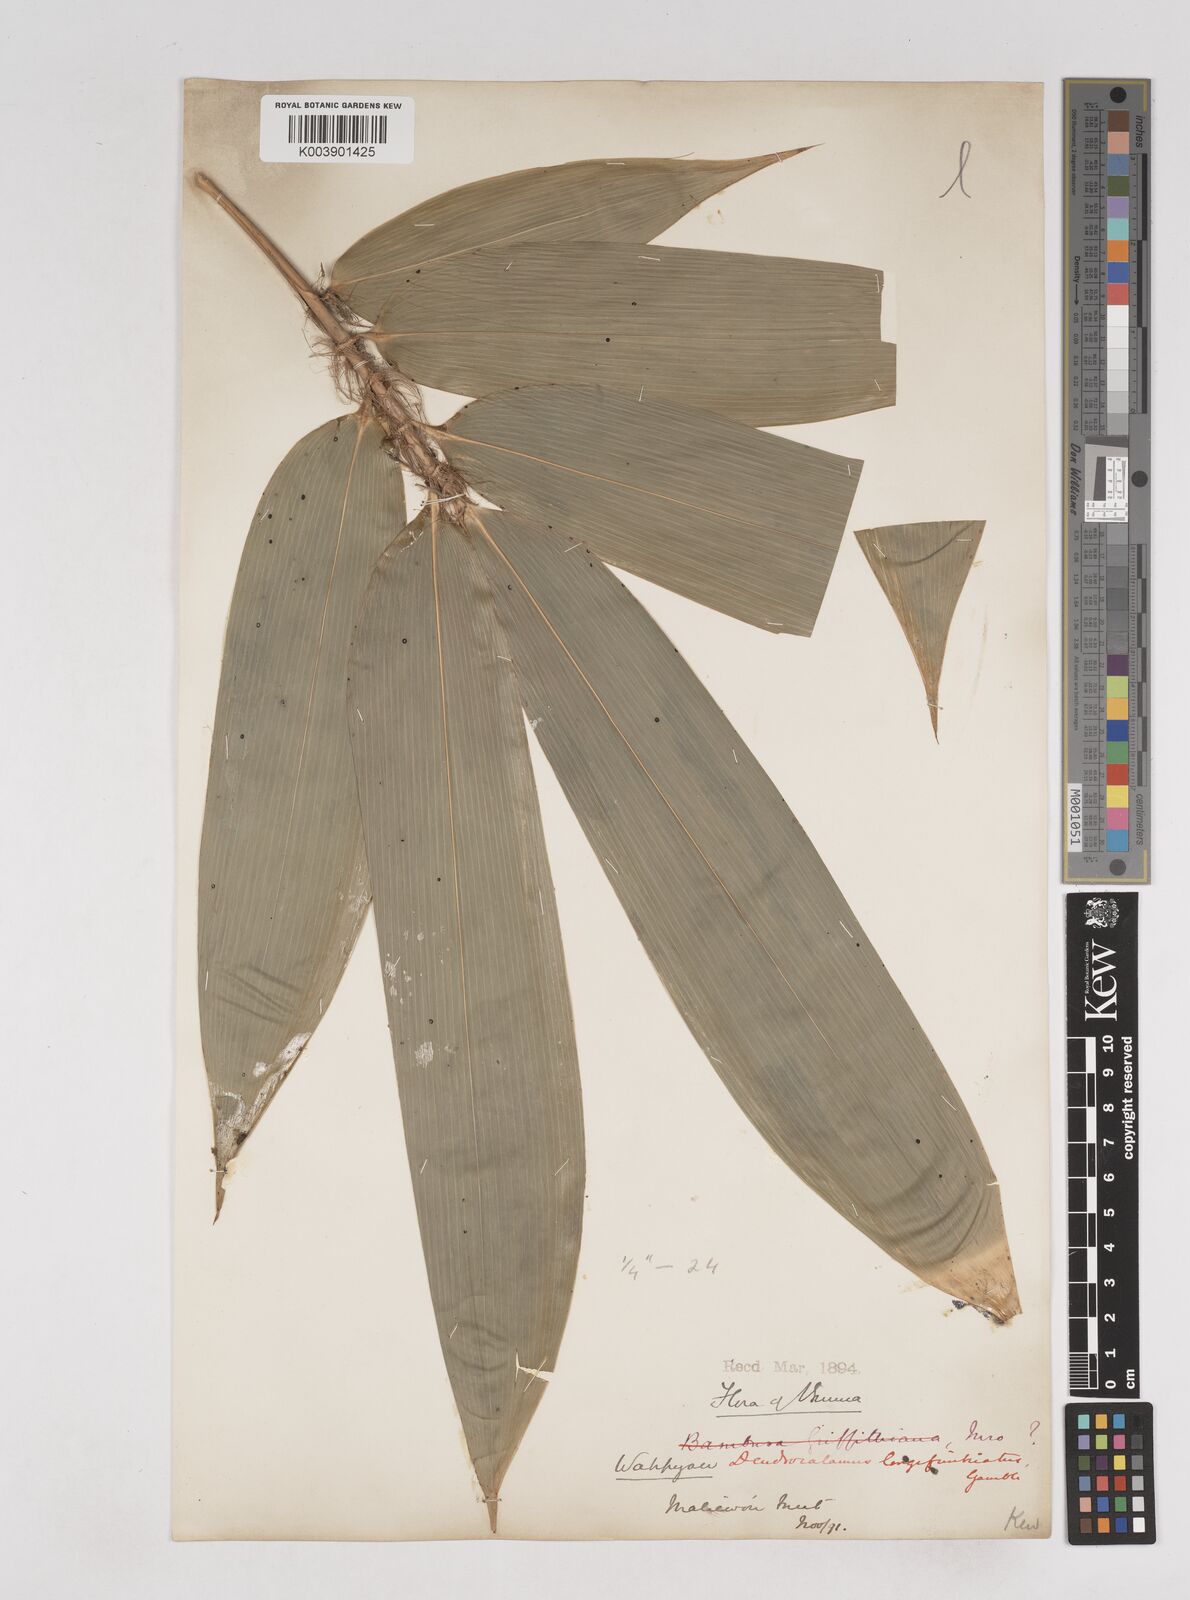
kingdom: Plantae
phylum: Tracheophyta
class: Liliopsida
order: Poales
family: Poaceae
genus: Schizostachyum
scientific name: Schizostachyum
